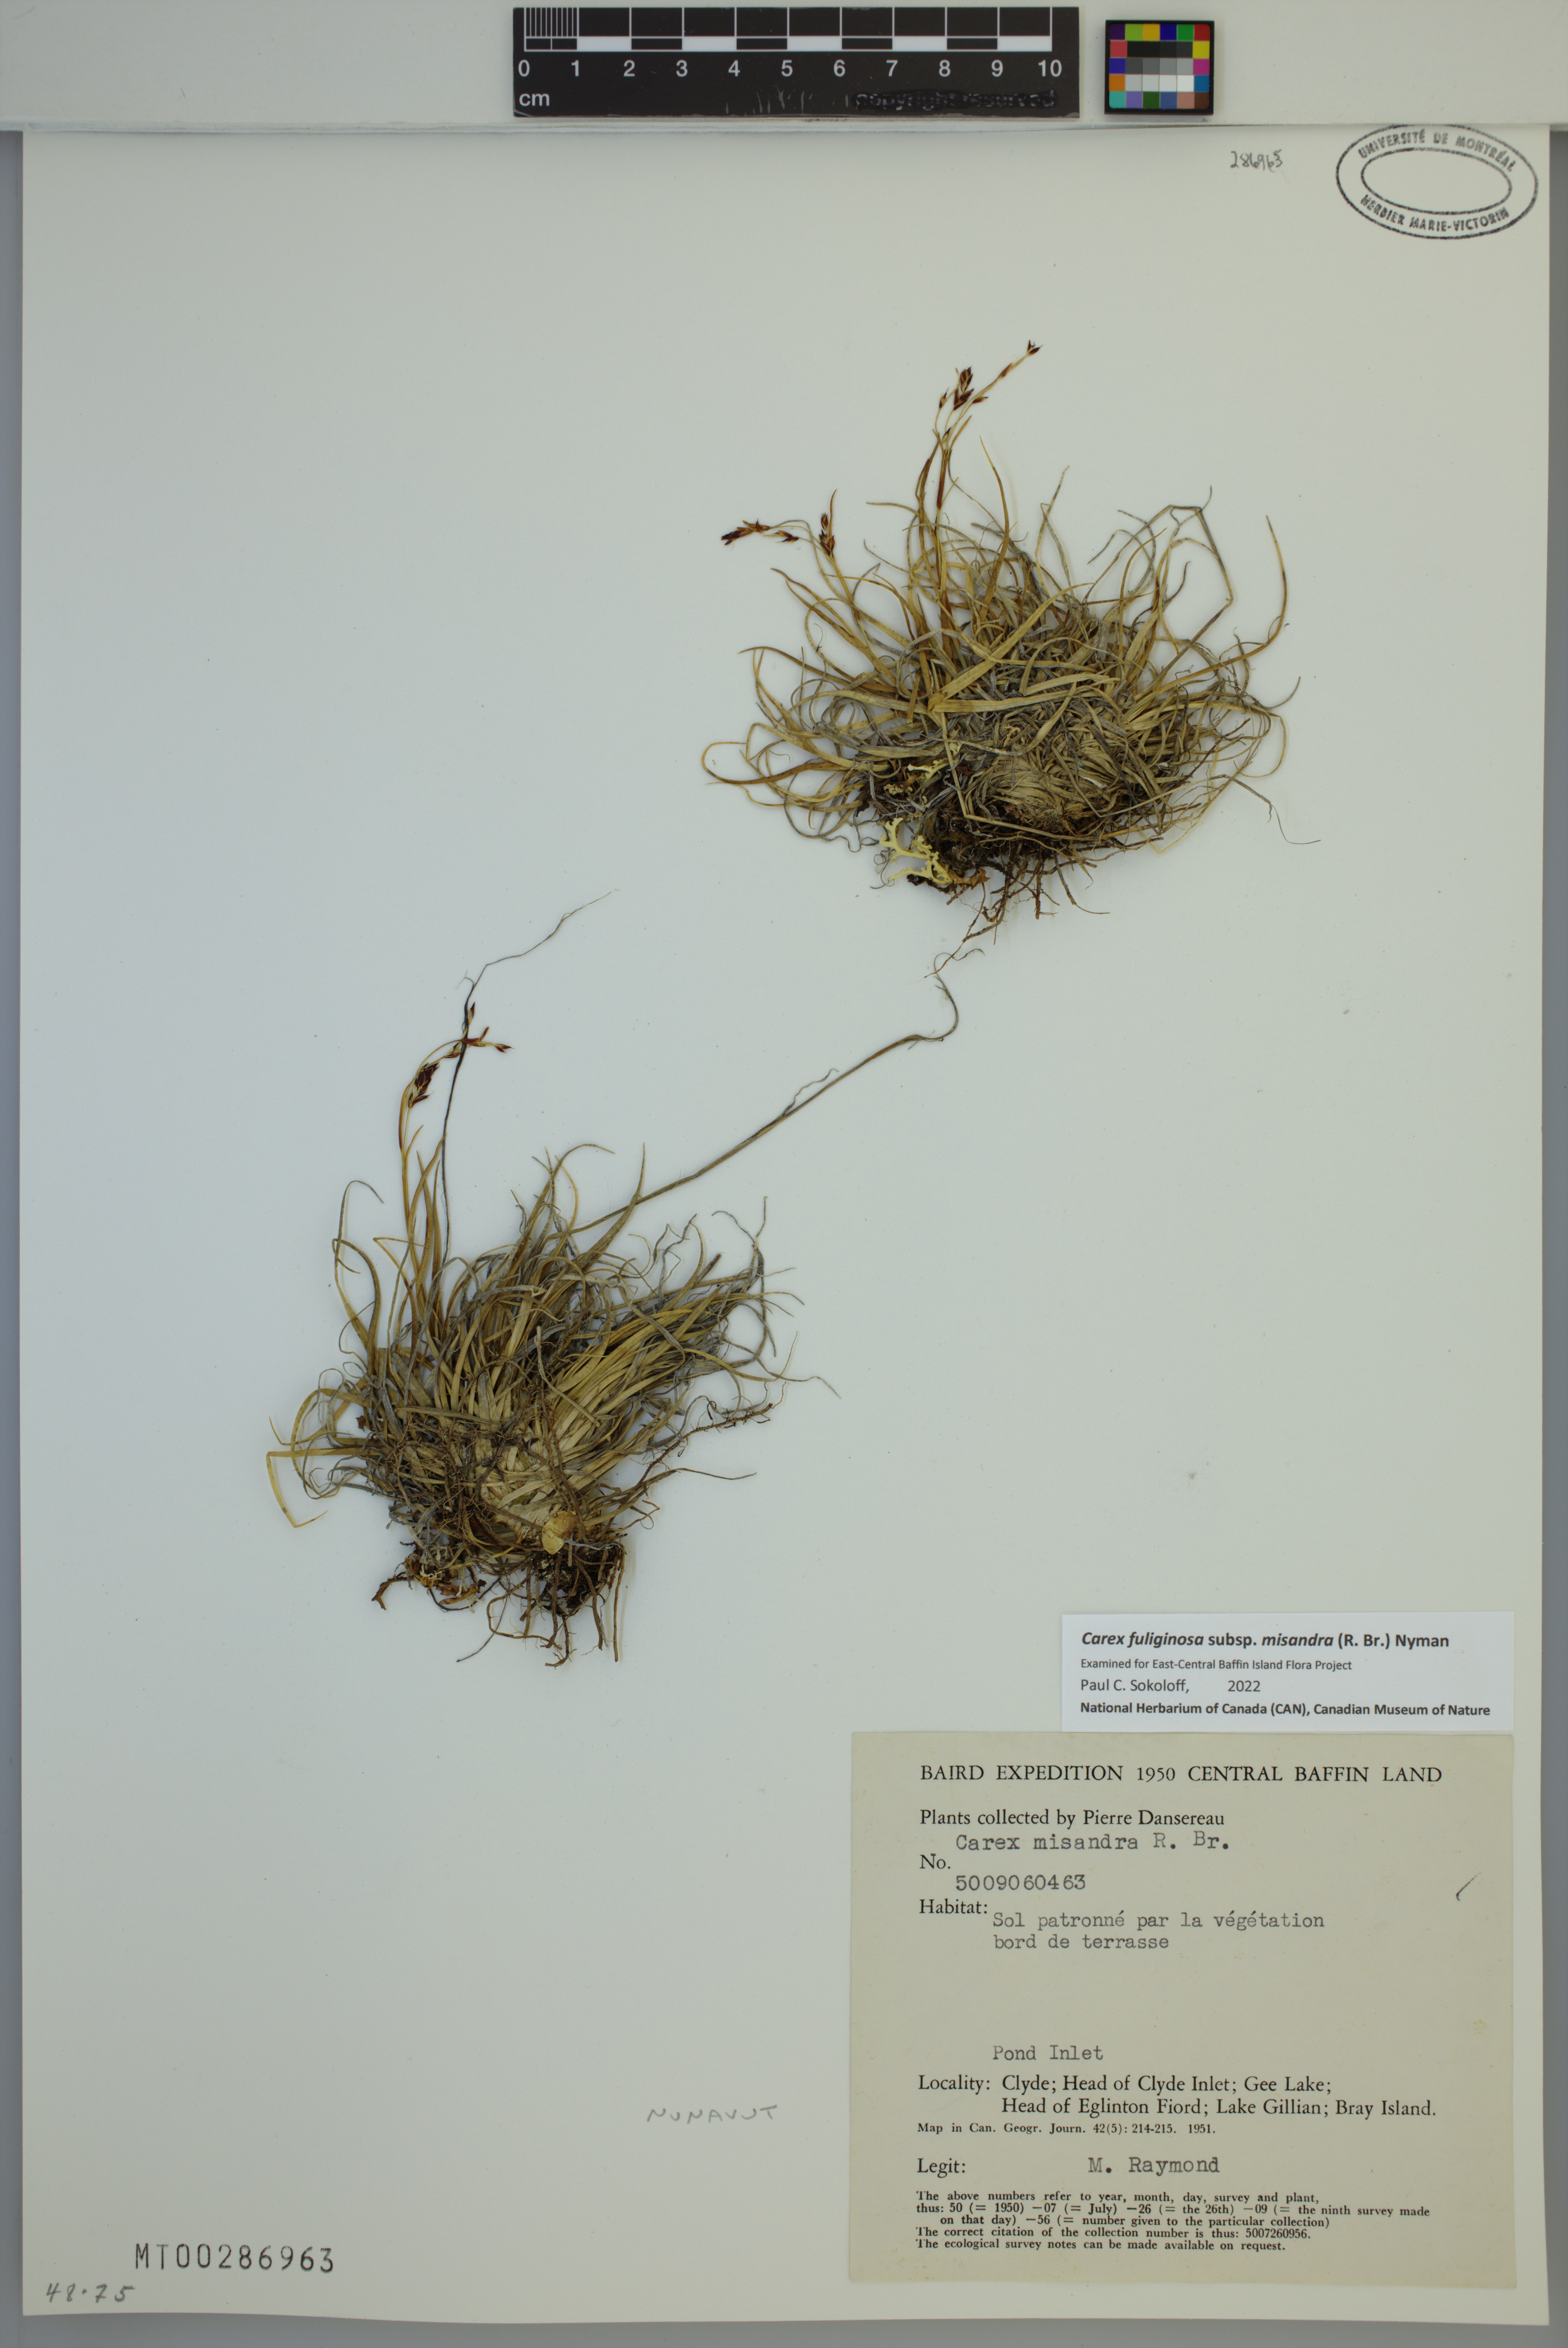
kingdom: Plantae
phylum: Tracheophyta
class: Liliopsida
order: Poales
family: Cyperaceae
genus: Carex
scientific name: Carex fuliginosa
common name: Few-flowered sedge
